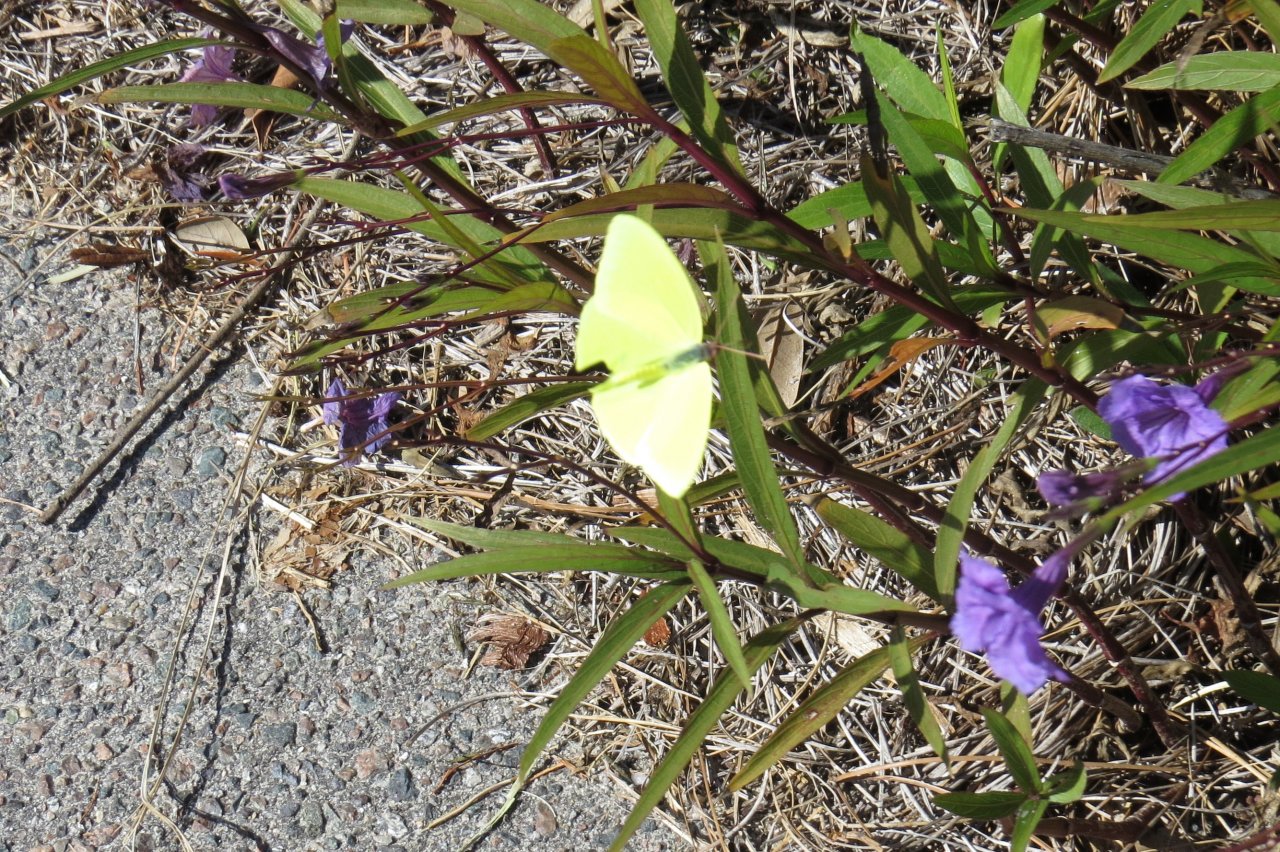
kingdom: Animalia
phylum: Arthropoda
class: Insecta
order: Lepidoptera
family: Pieridae
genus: Phoebis
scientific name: Phoebis sennae
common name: Cloudless Sulphur
